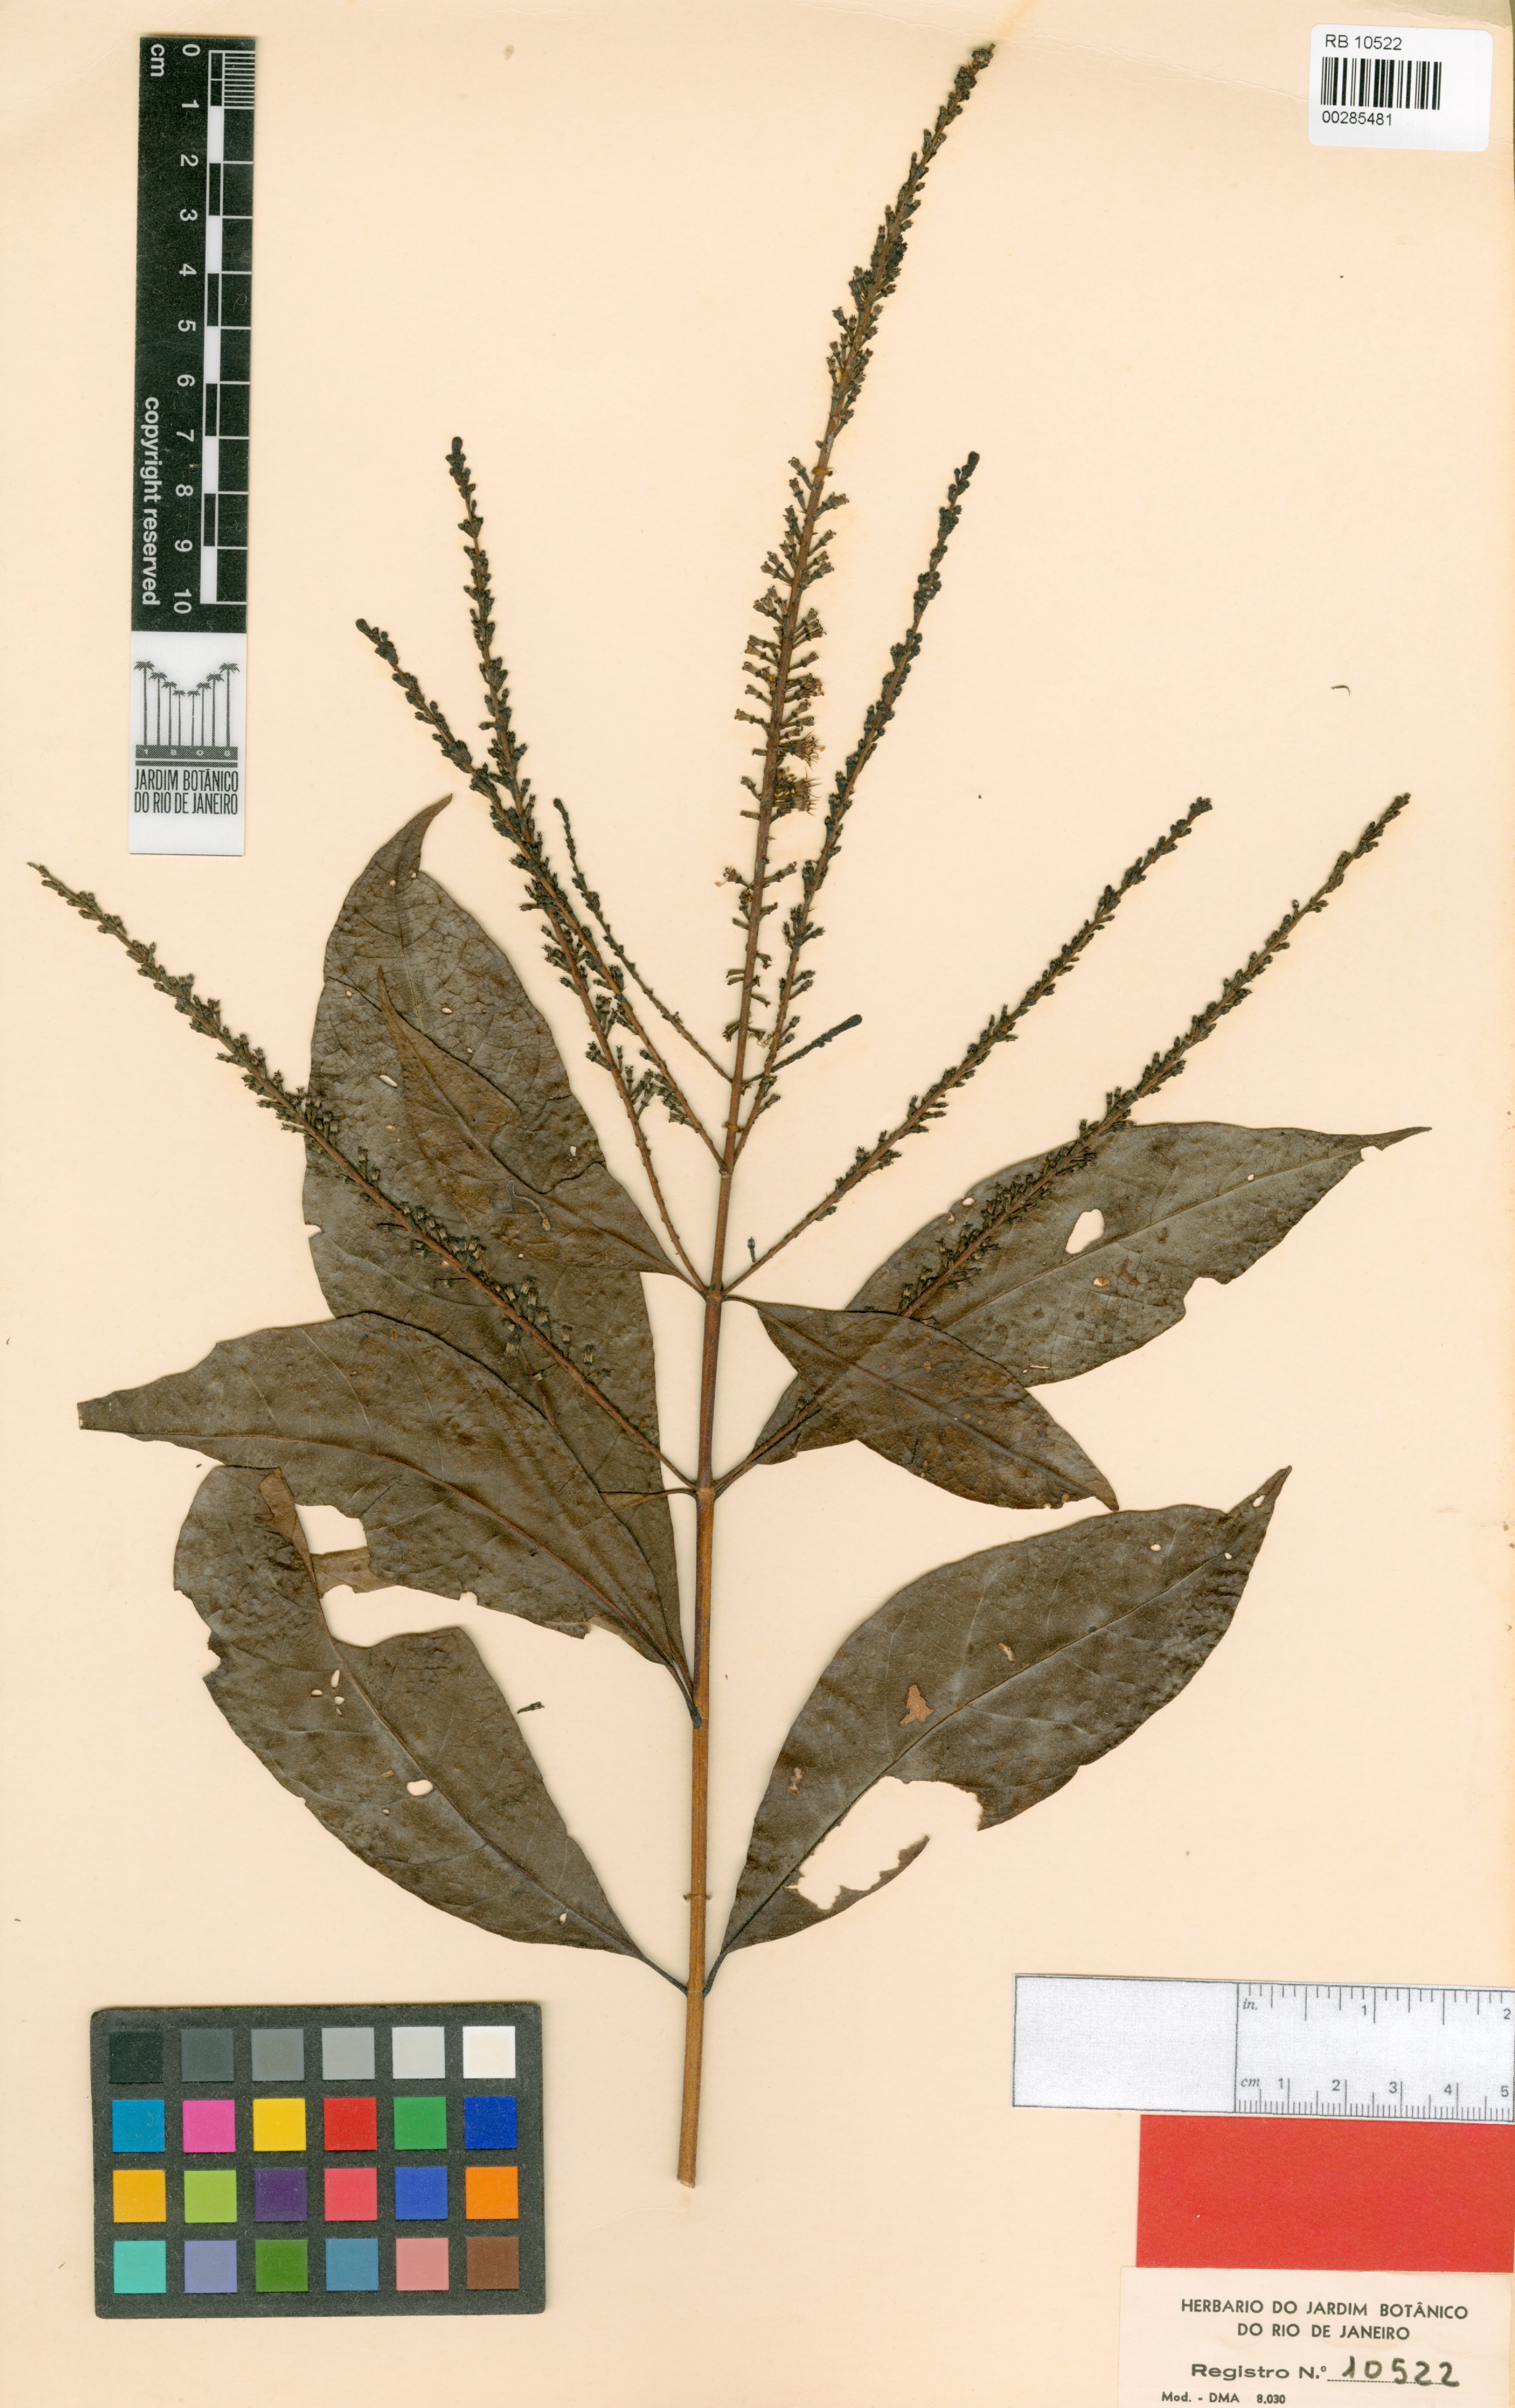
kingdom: Plantae
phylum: Tracheophyta
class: Magnoliopsida
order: Gentianales
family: Rubiaceae
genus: Alseis
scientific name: Alseis longifolia
